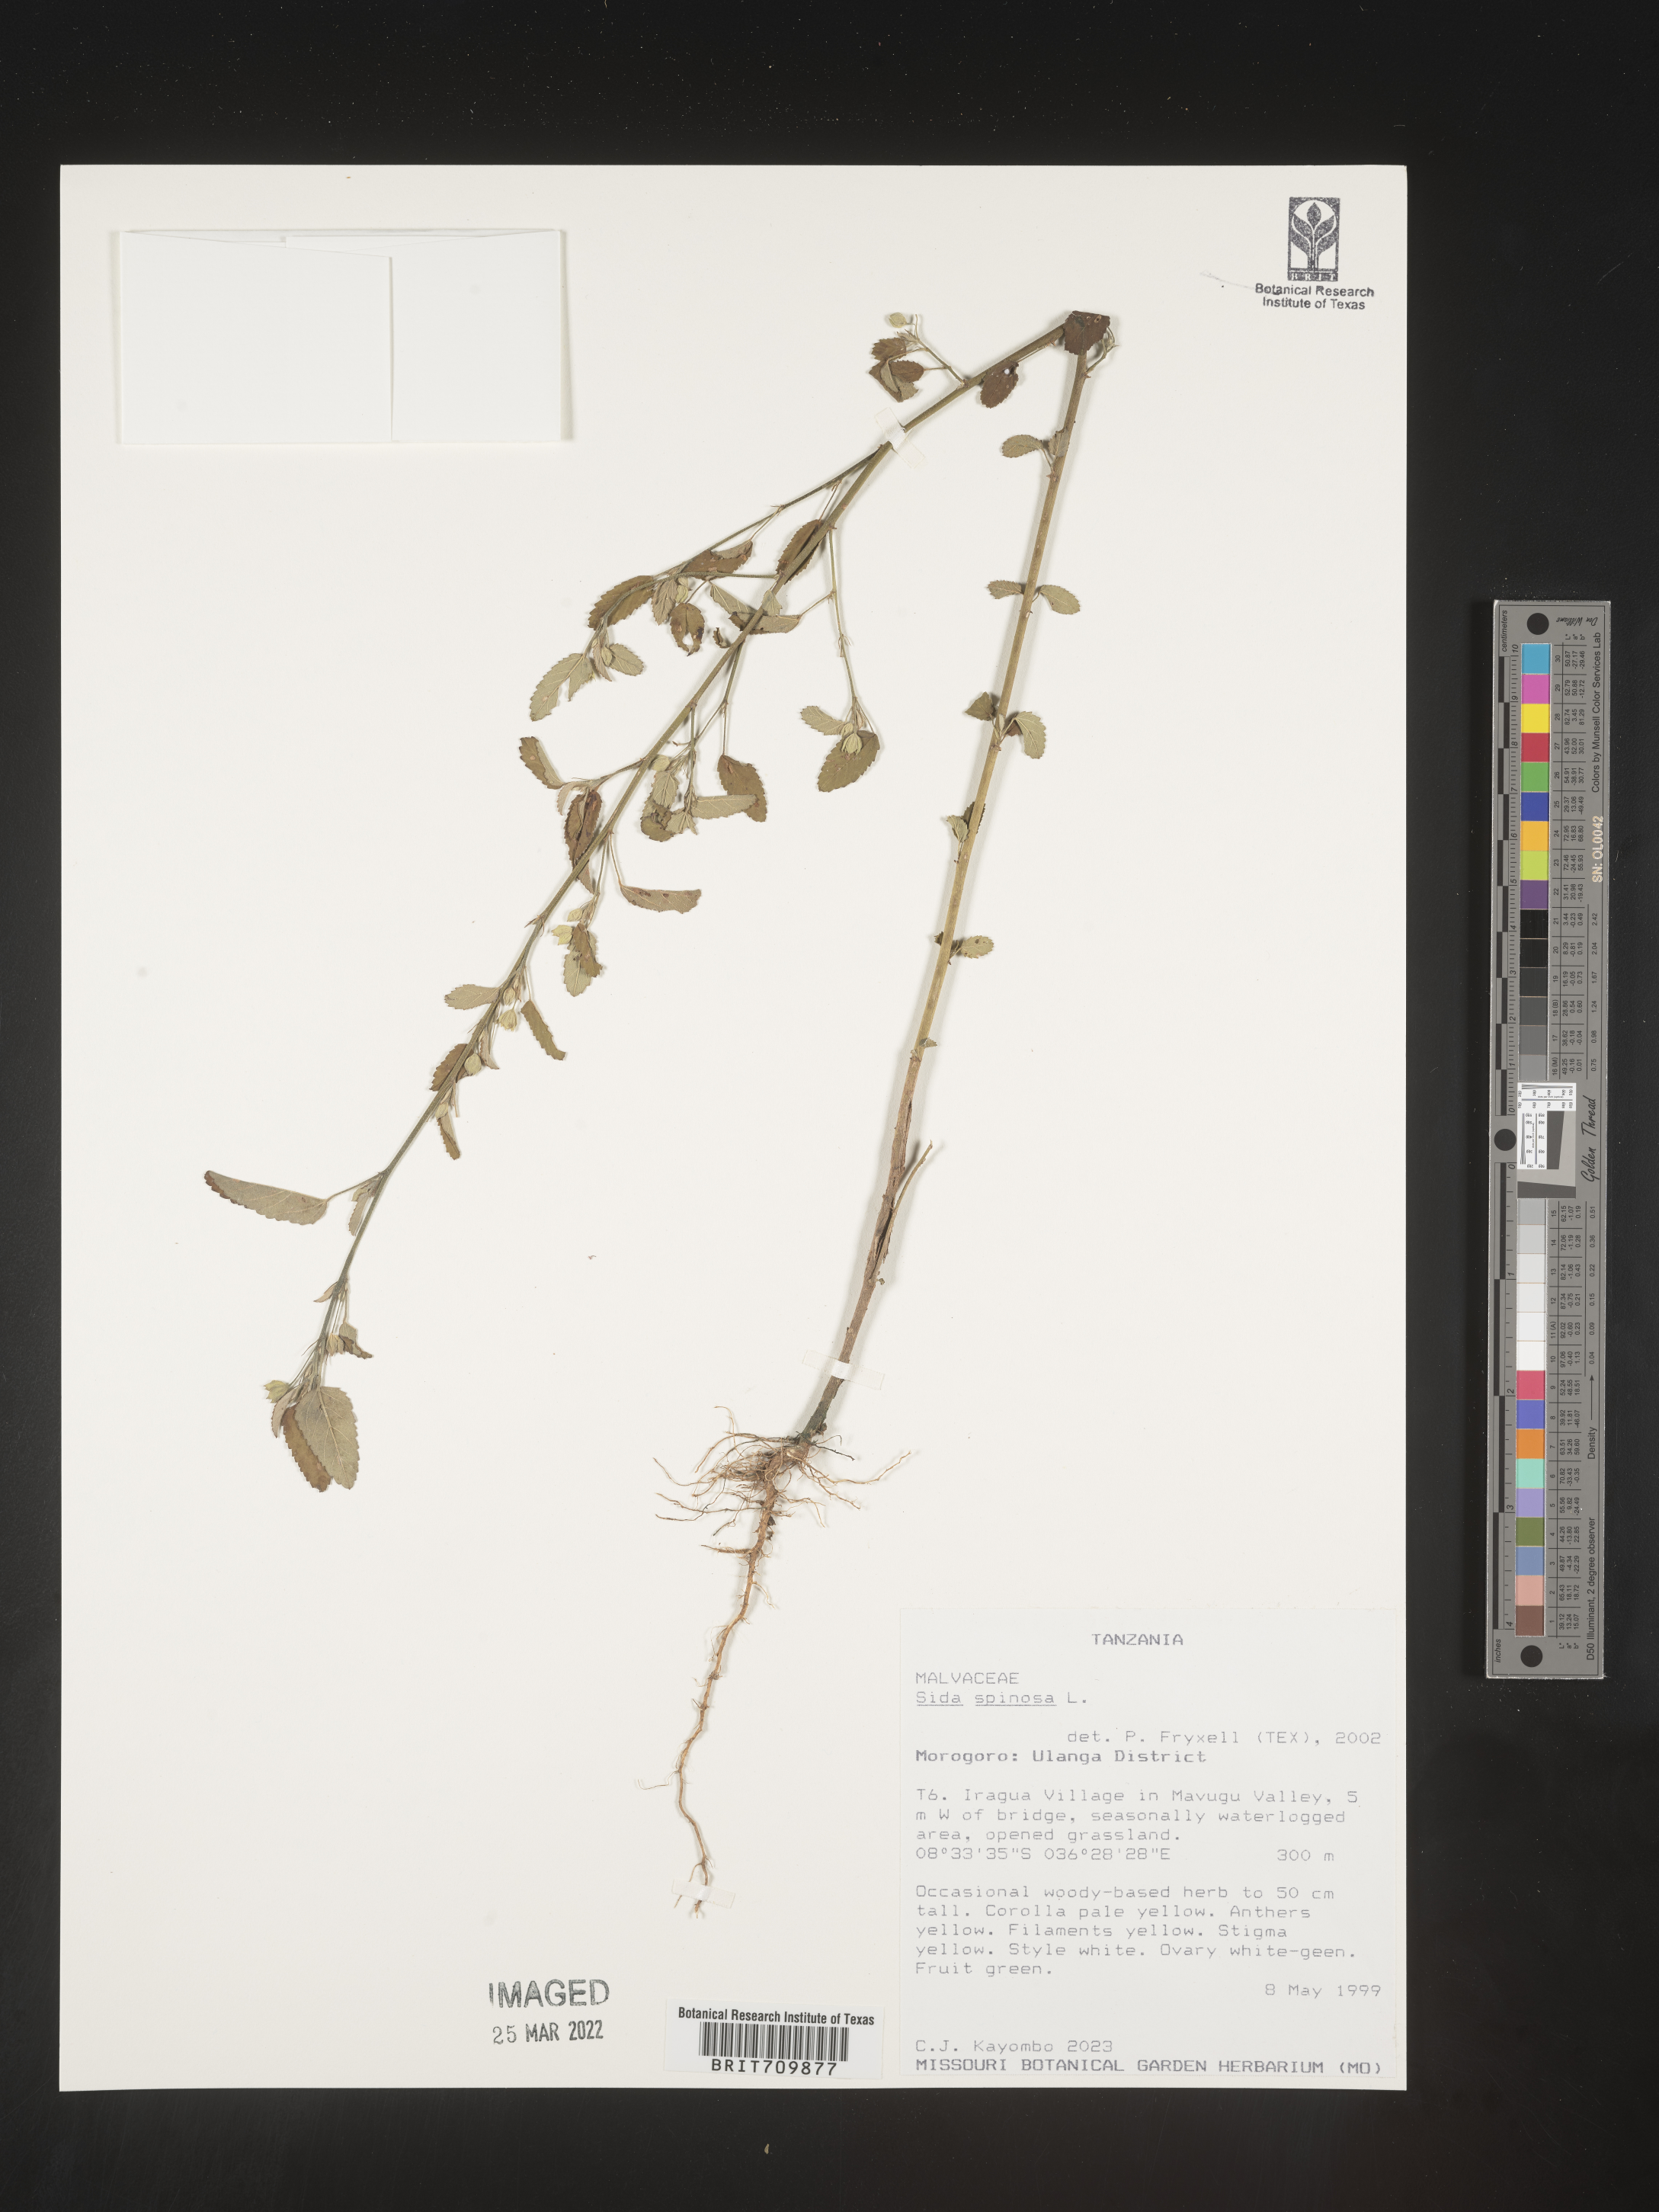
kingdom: Plantae
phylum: Tracheophyta
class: Magnoliopsida
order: Malvales
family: Malvaceae
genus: Sida
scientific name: Sida
